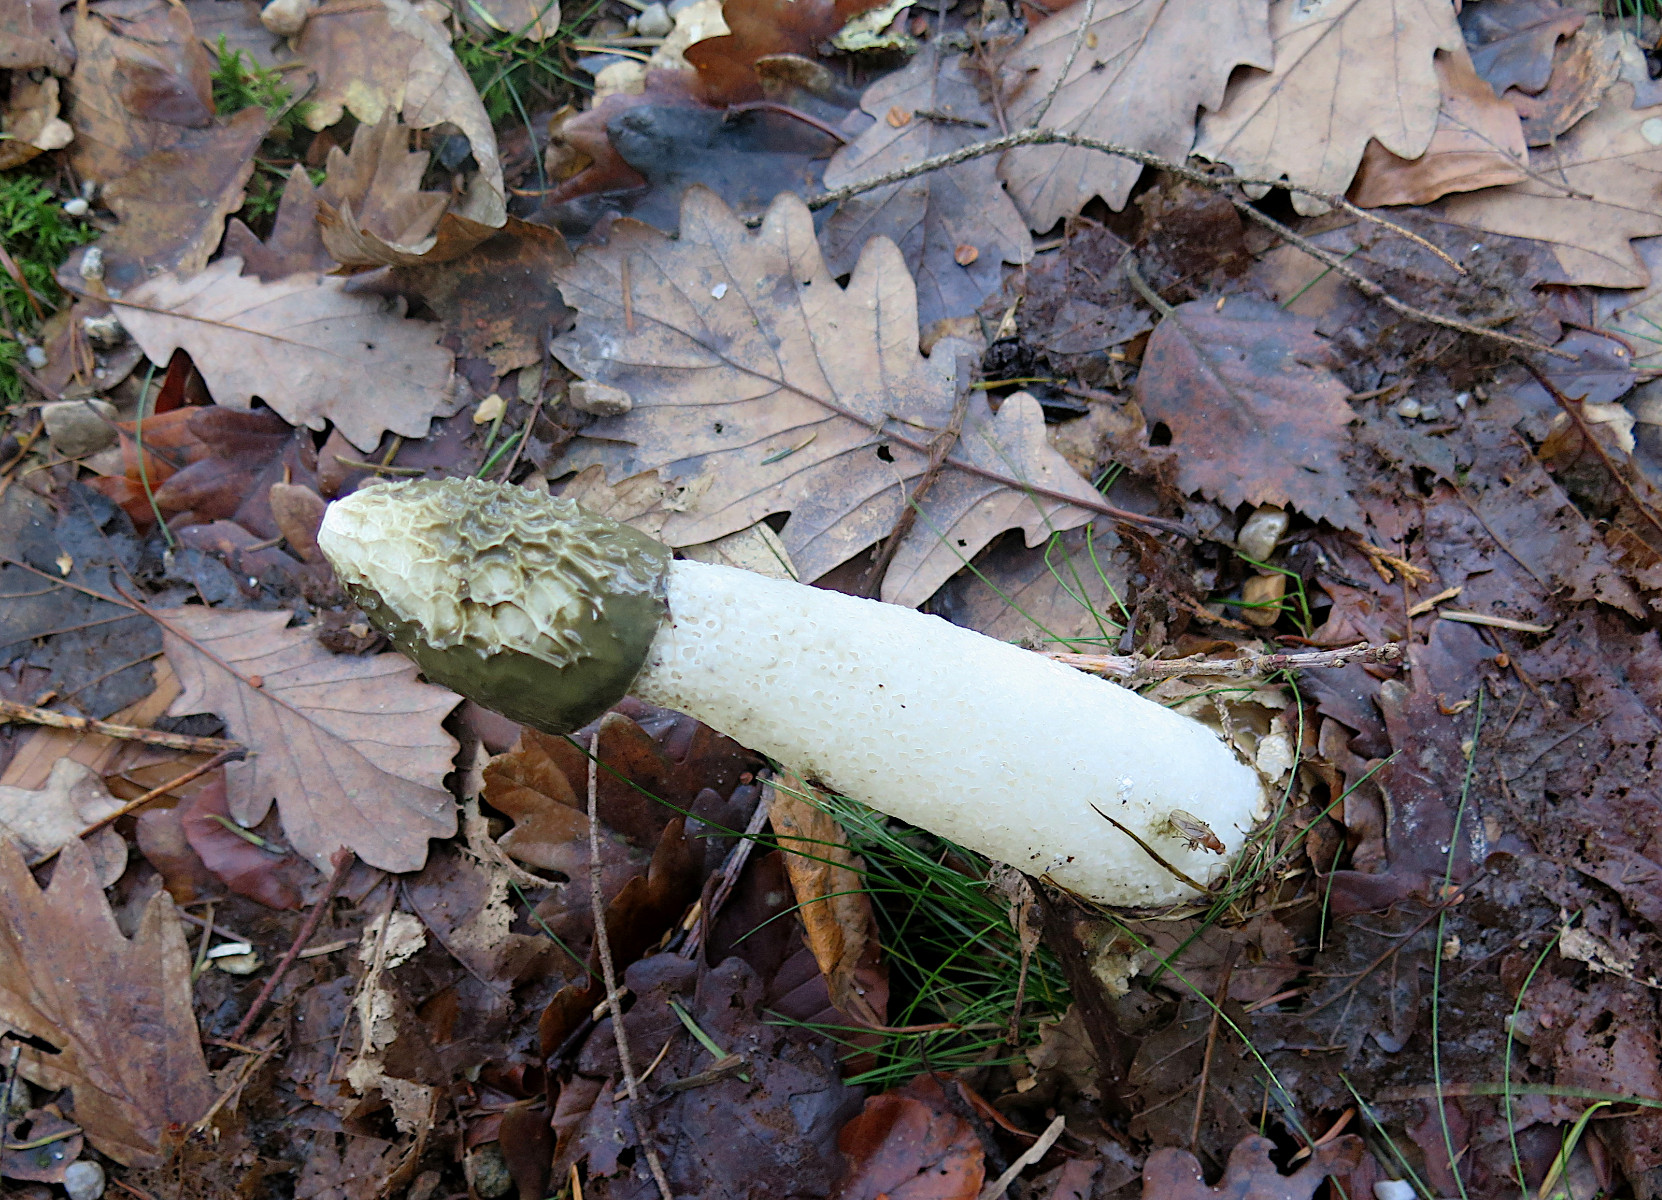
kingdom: Fungi
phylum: Basidiomycota
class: Agaricomycetes
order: Phallales
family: Phallaceae
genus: Phallus
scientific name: Phallus impudicus
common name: almindelig stinksvamp
